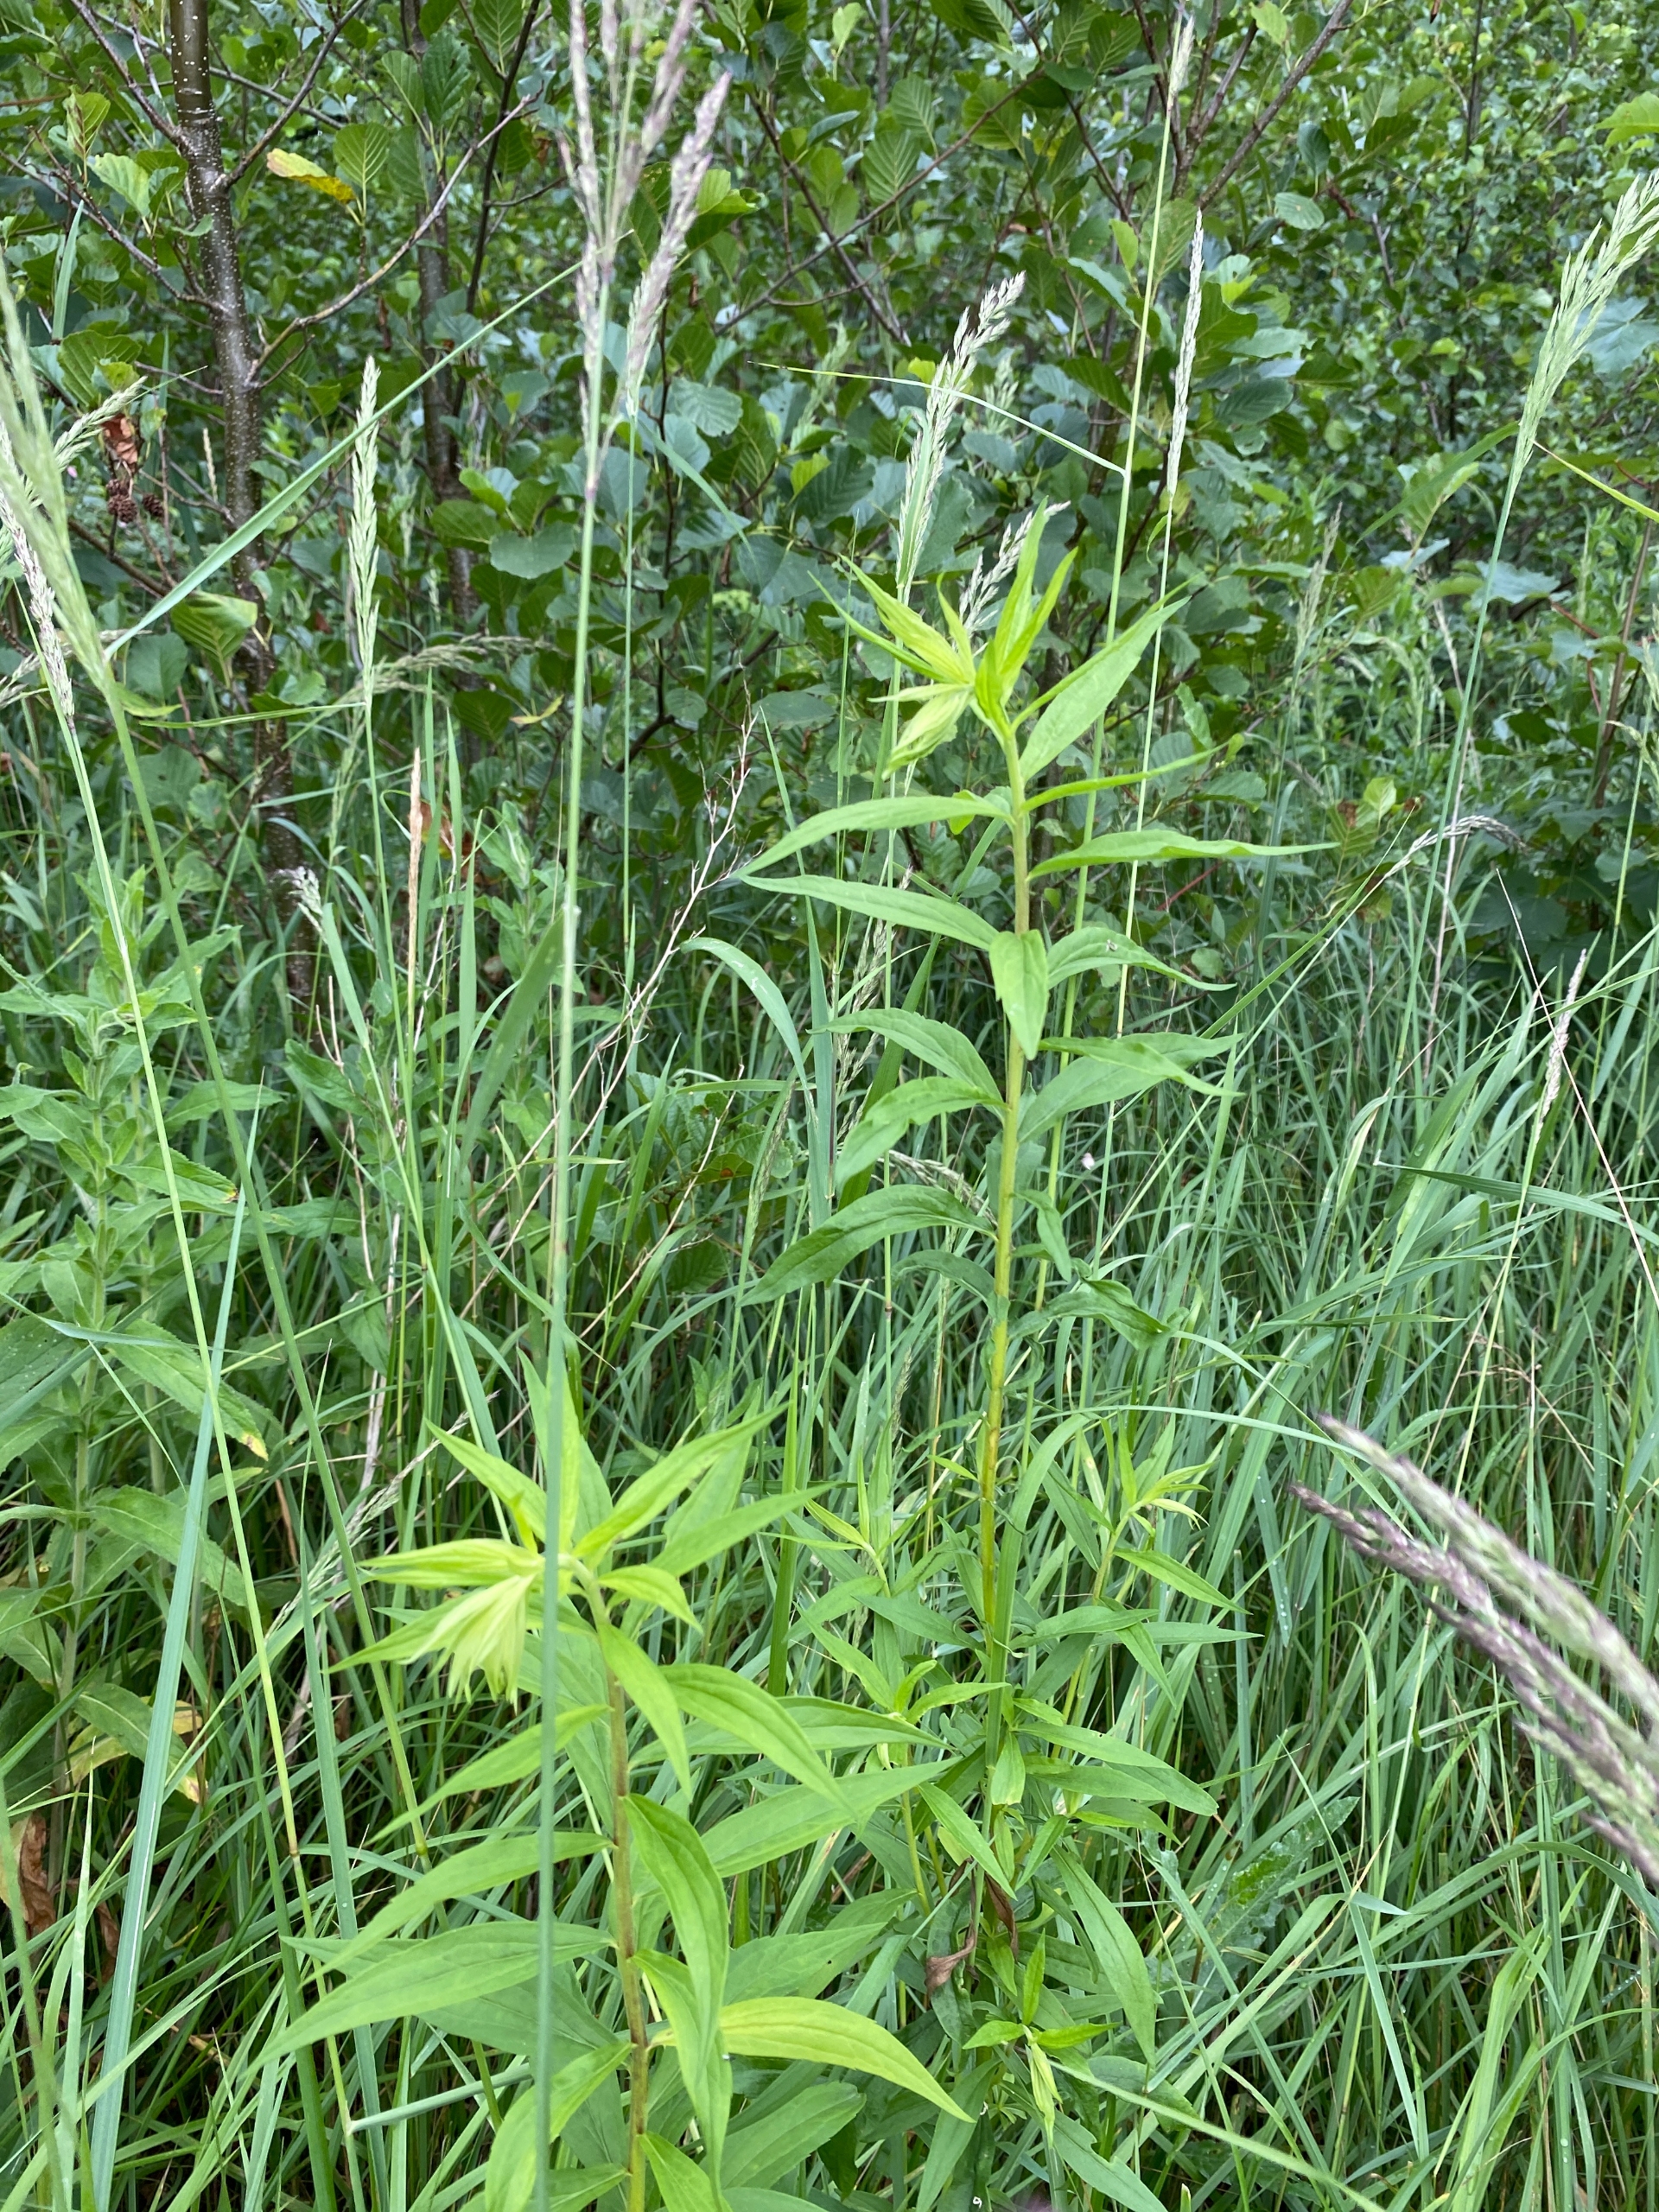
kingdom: Plantae
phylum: Tracheophyta
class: Magnoliopsida
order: Asterales
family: Asteraceae
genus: Solidago
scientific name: Solidago gigantea
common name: Sildig gyldenris
